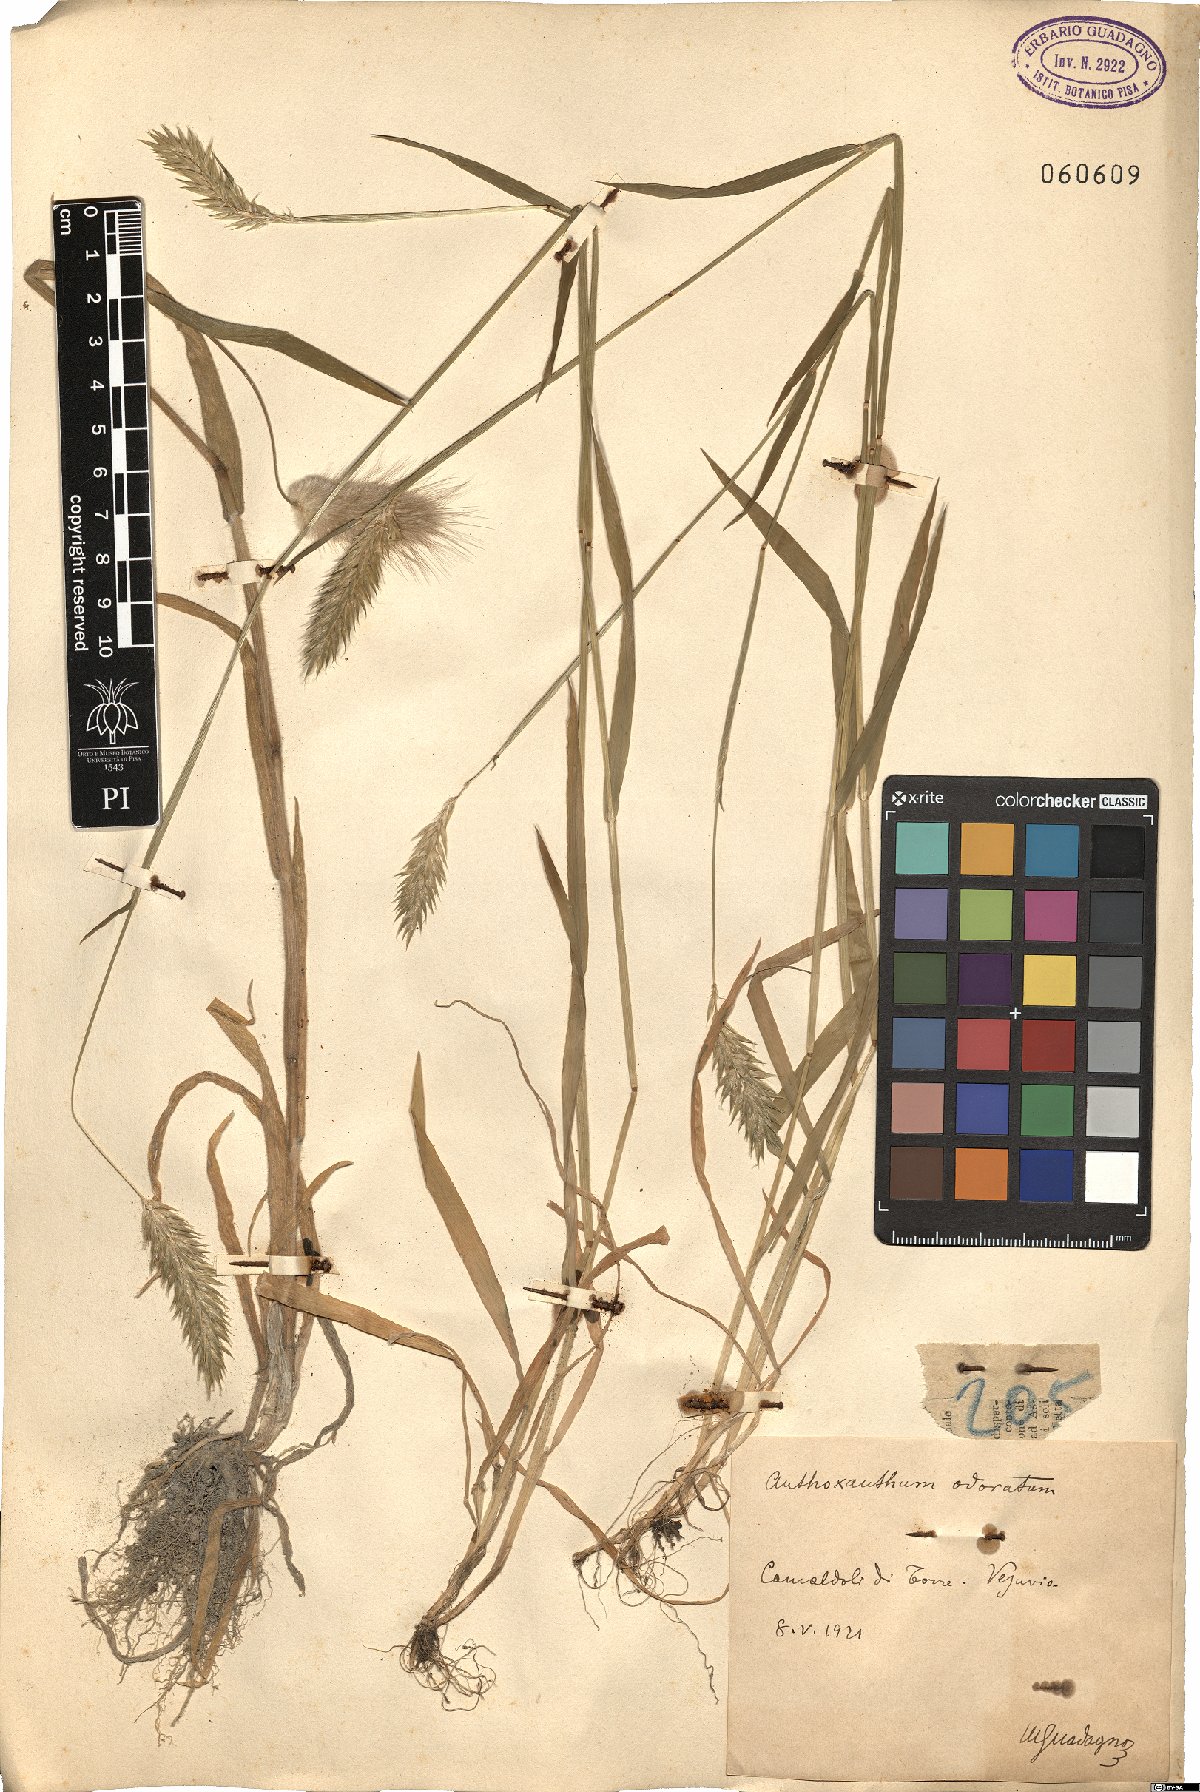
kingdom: Plantae
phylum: Tracheophyta
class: Liliopsida
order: Poales
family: Poaceae
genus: Anthoxanthum
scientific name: Anthoxanthum odoratum
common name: Sweet vernalgrass
